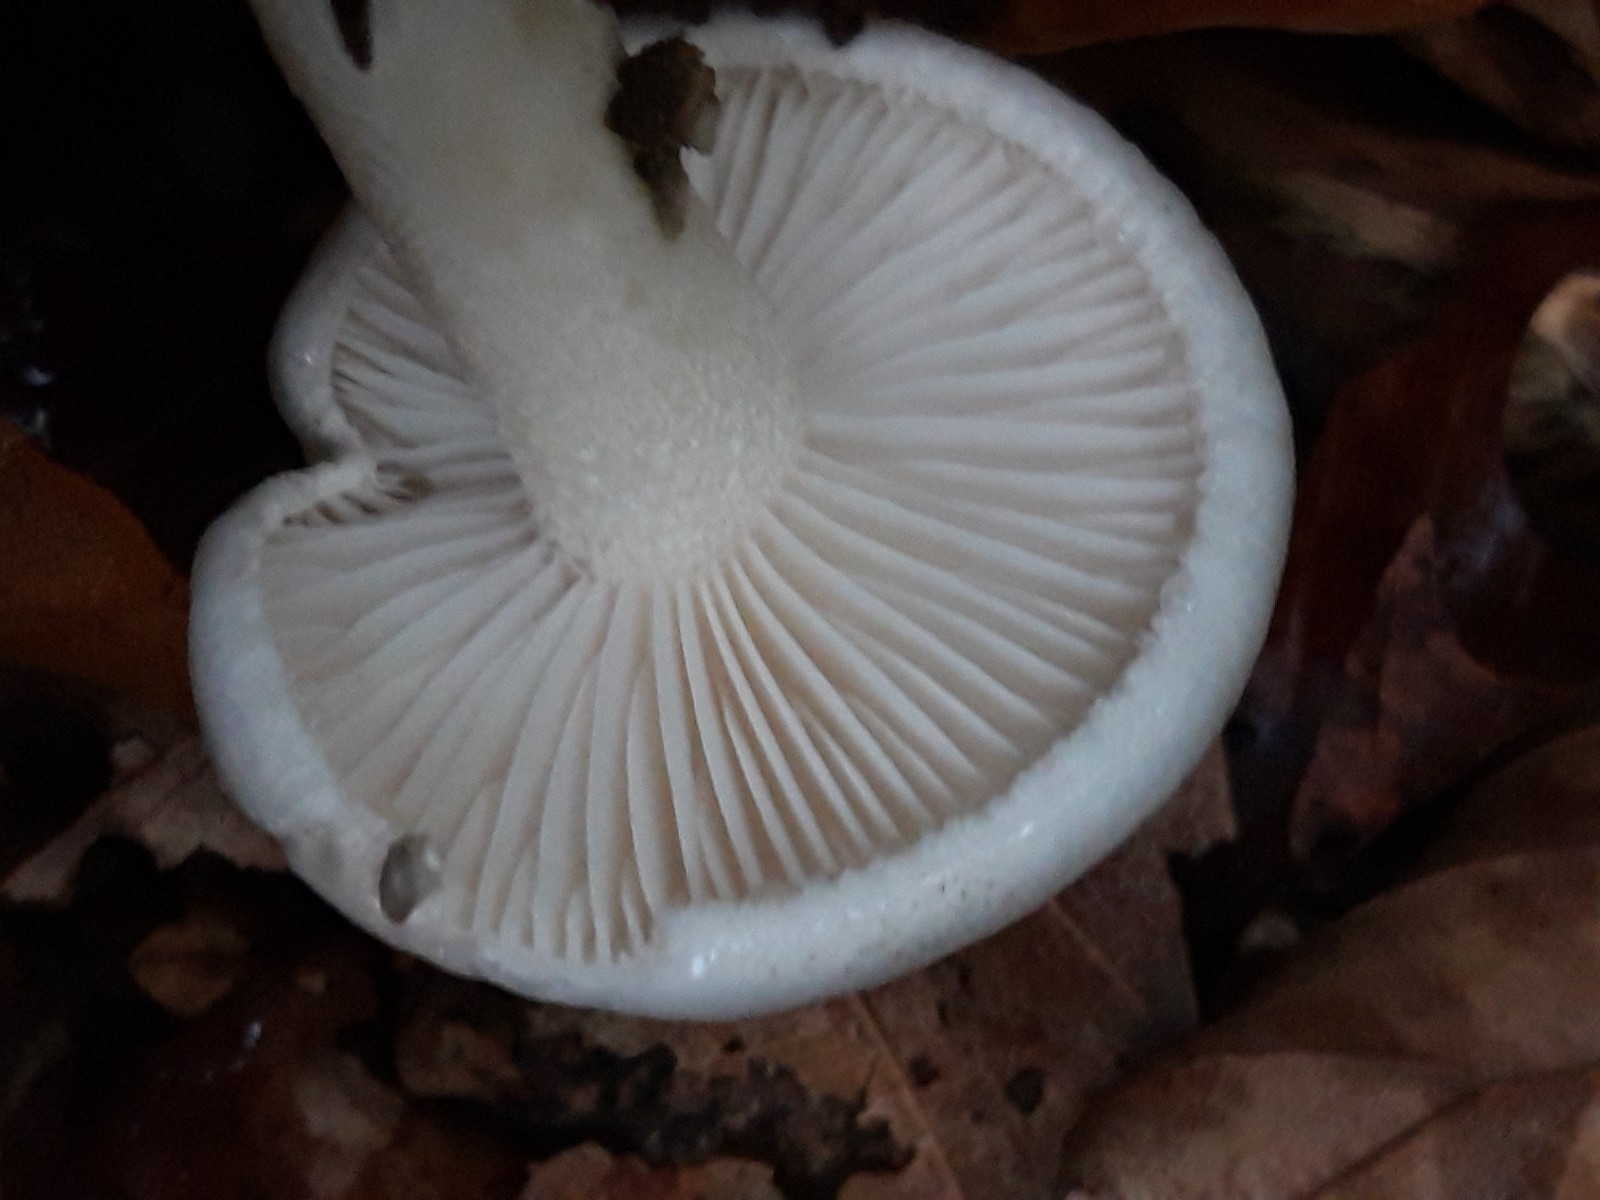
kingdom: Fungi
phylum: Basidiomycota
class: Agaricomycetes
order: Agaricales
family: Hygrophoraceae
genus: Hygrophorus
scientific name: Hygrophorus discoxanthus
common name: ildelugtende sneglehat
